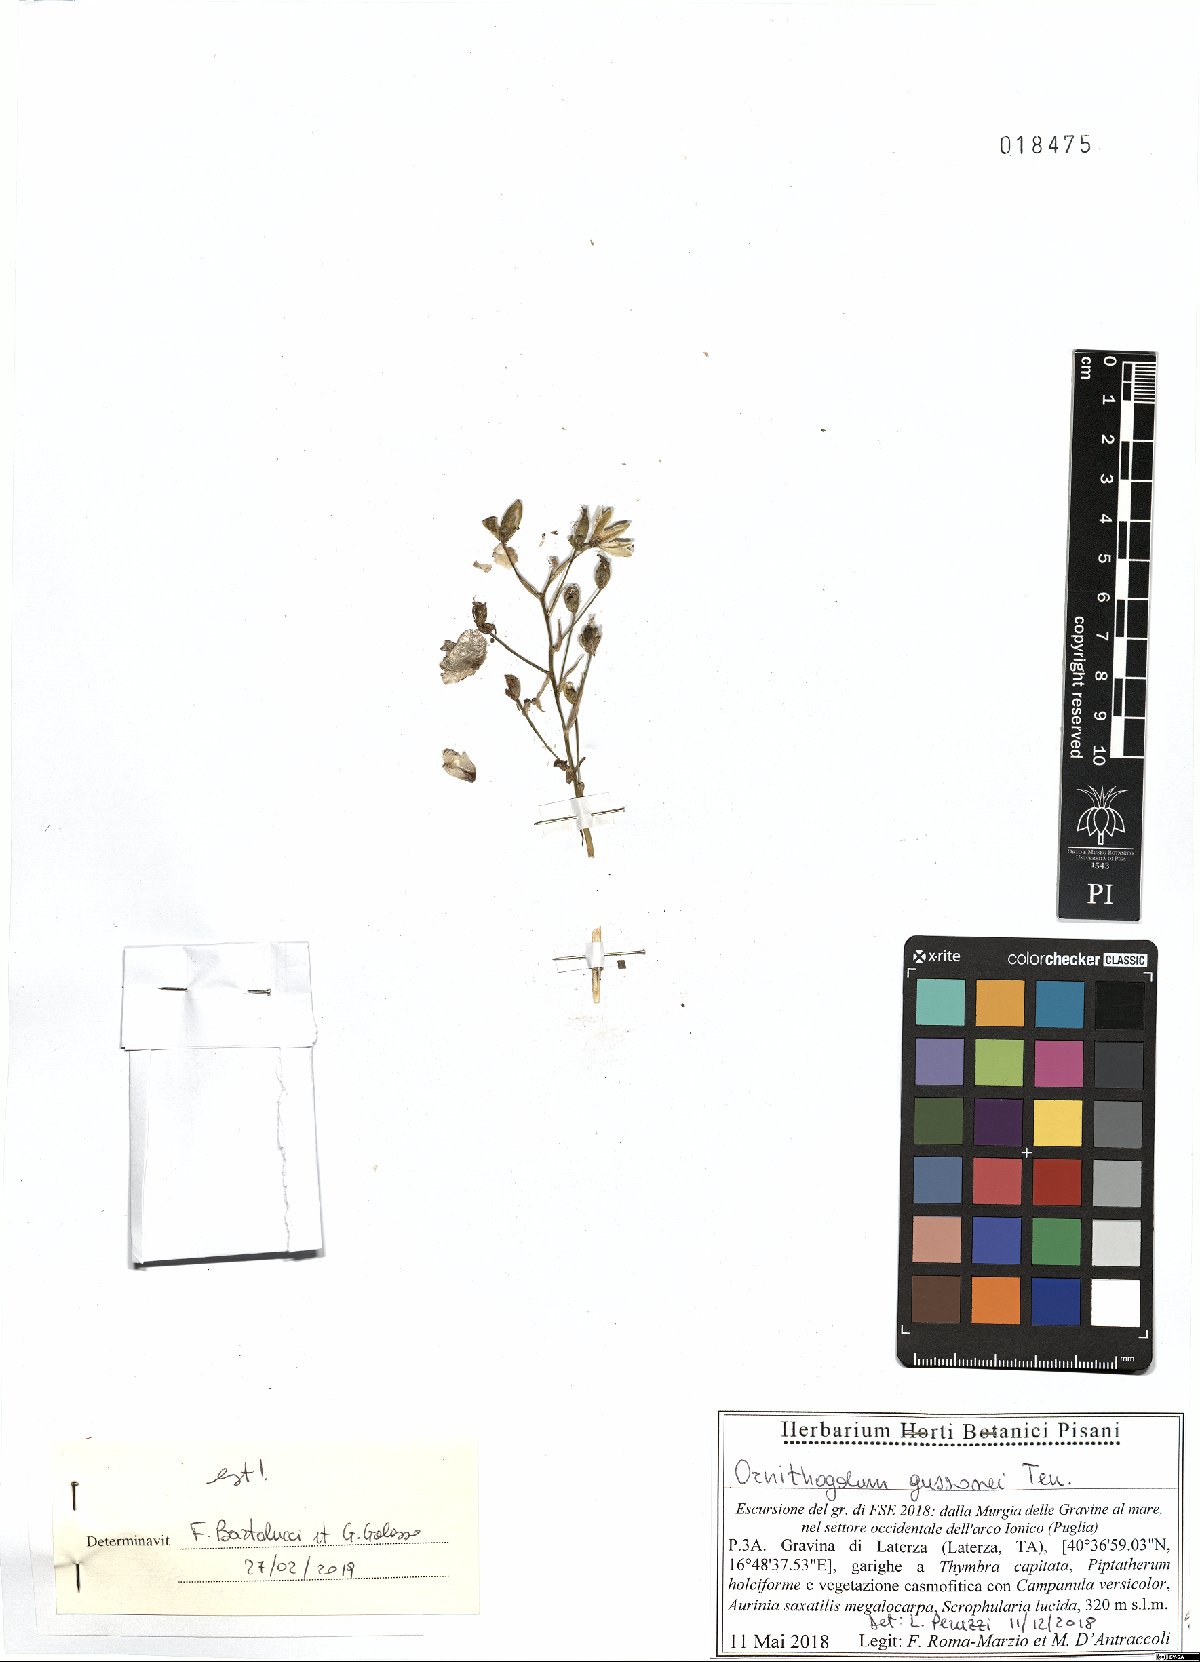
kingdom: Plantae
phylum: Tracheophyta
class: Liliopsida
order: Asparagales
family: Asparagaceae
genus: Ornithogalum
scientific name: Ornithogalum gussonei
